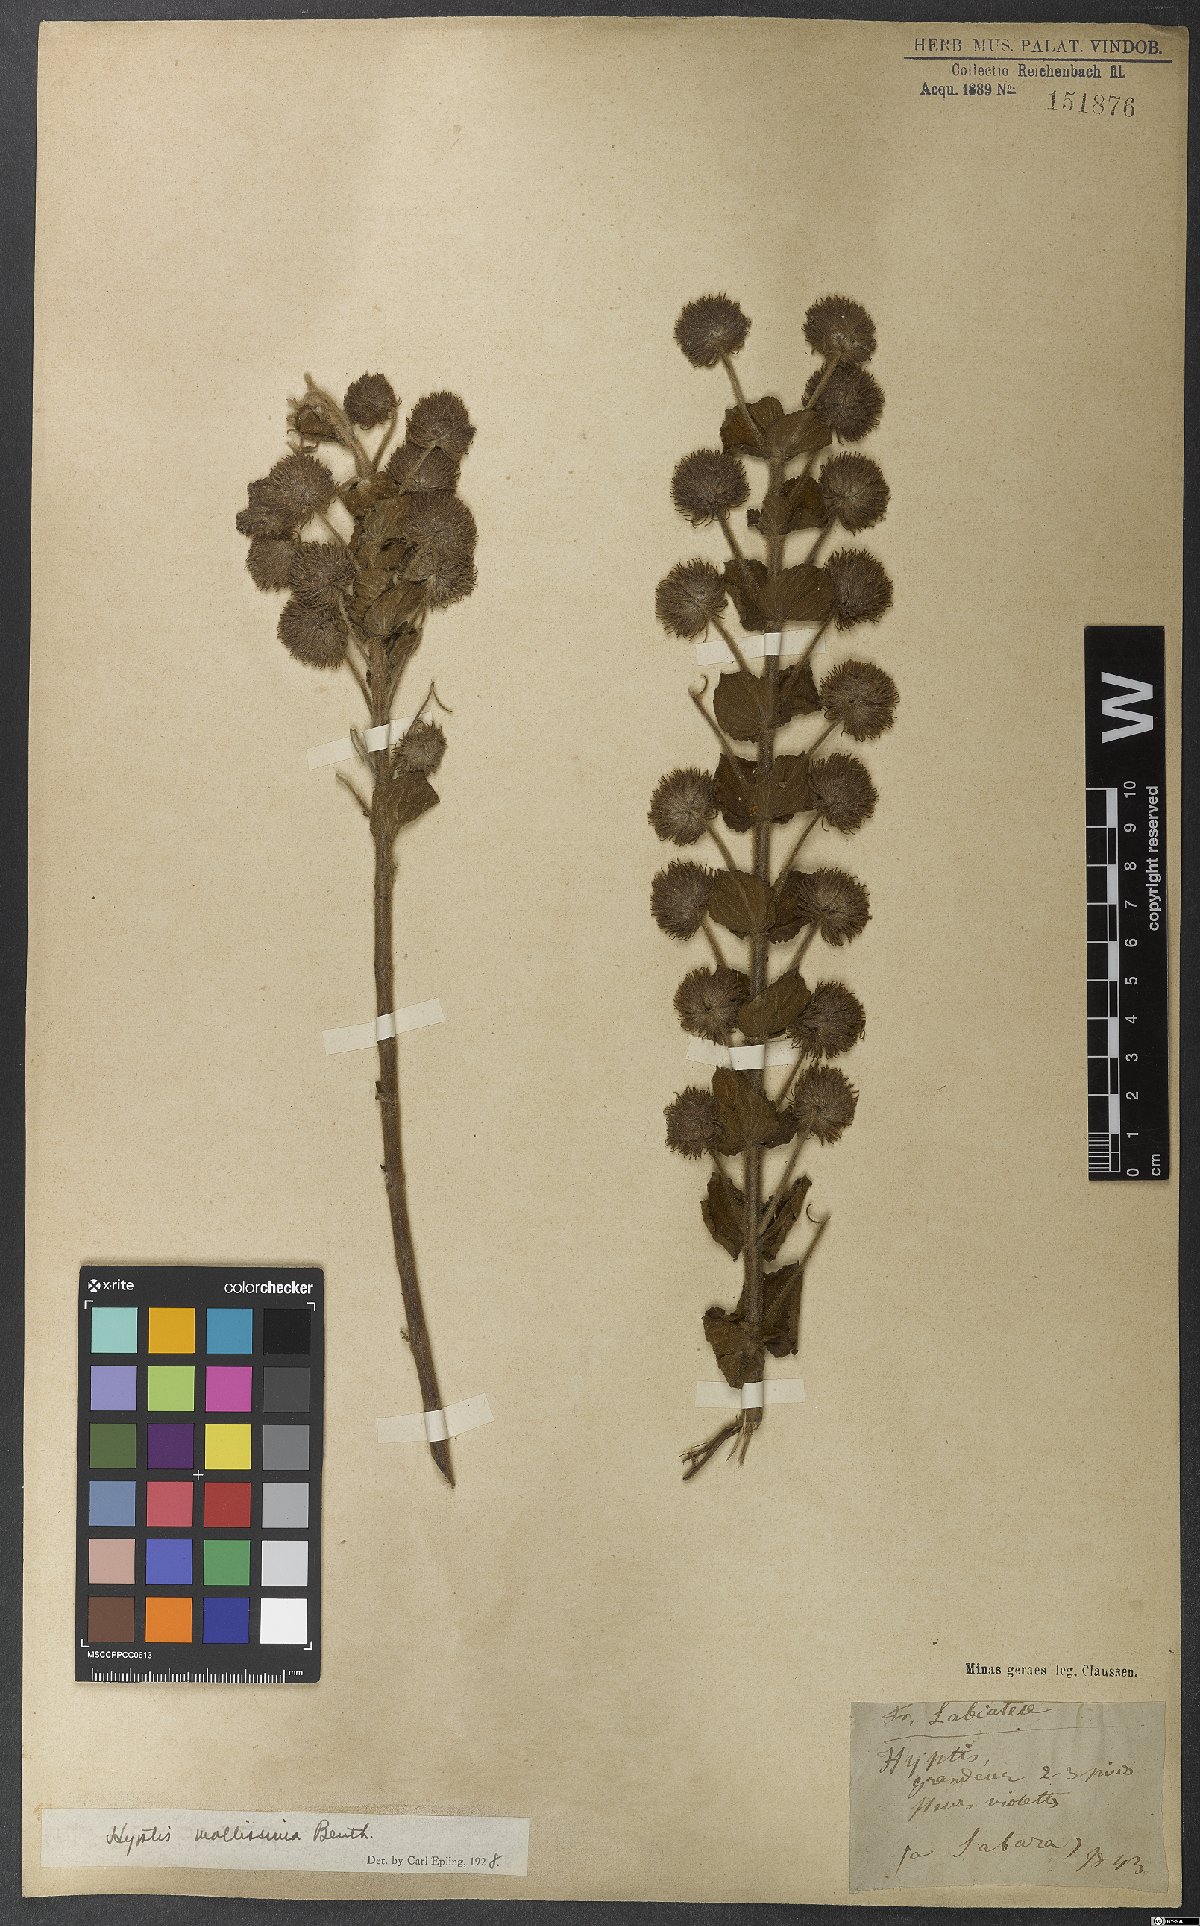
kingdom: Plantae
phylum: Tracheophyta
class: Magnoliopsida
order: Lamiales
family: Lamiaceae
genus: Medusantha
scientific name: Medusantha mollissima
